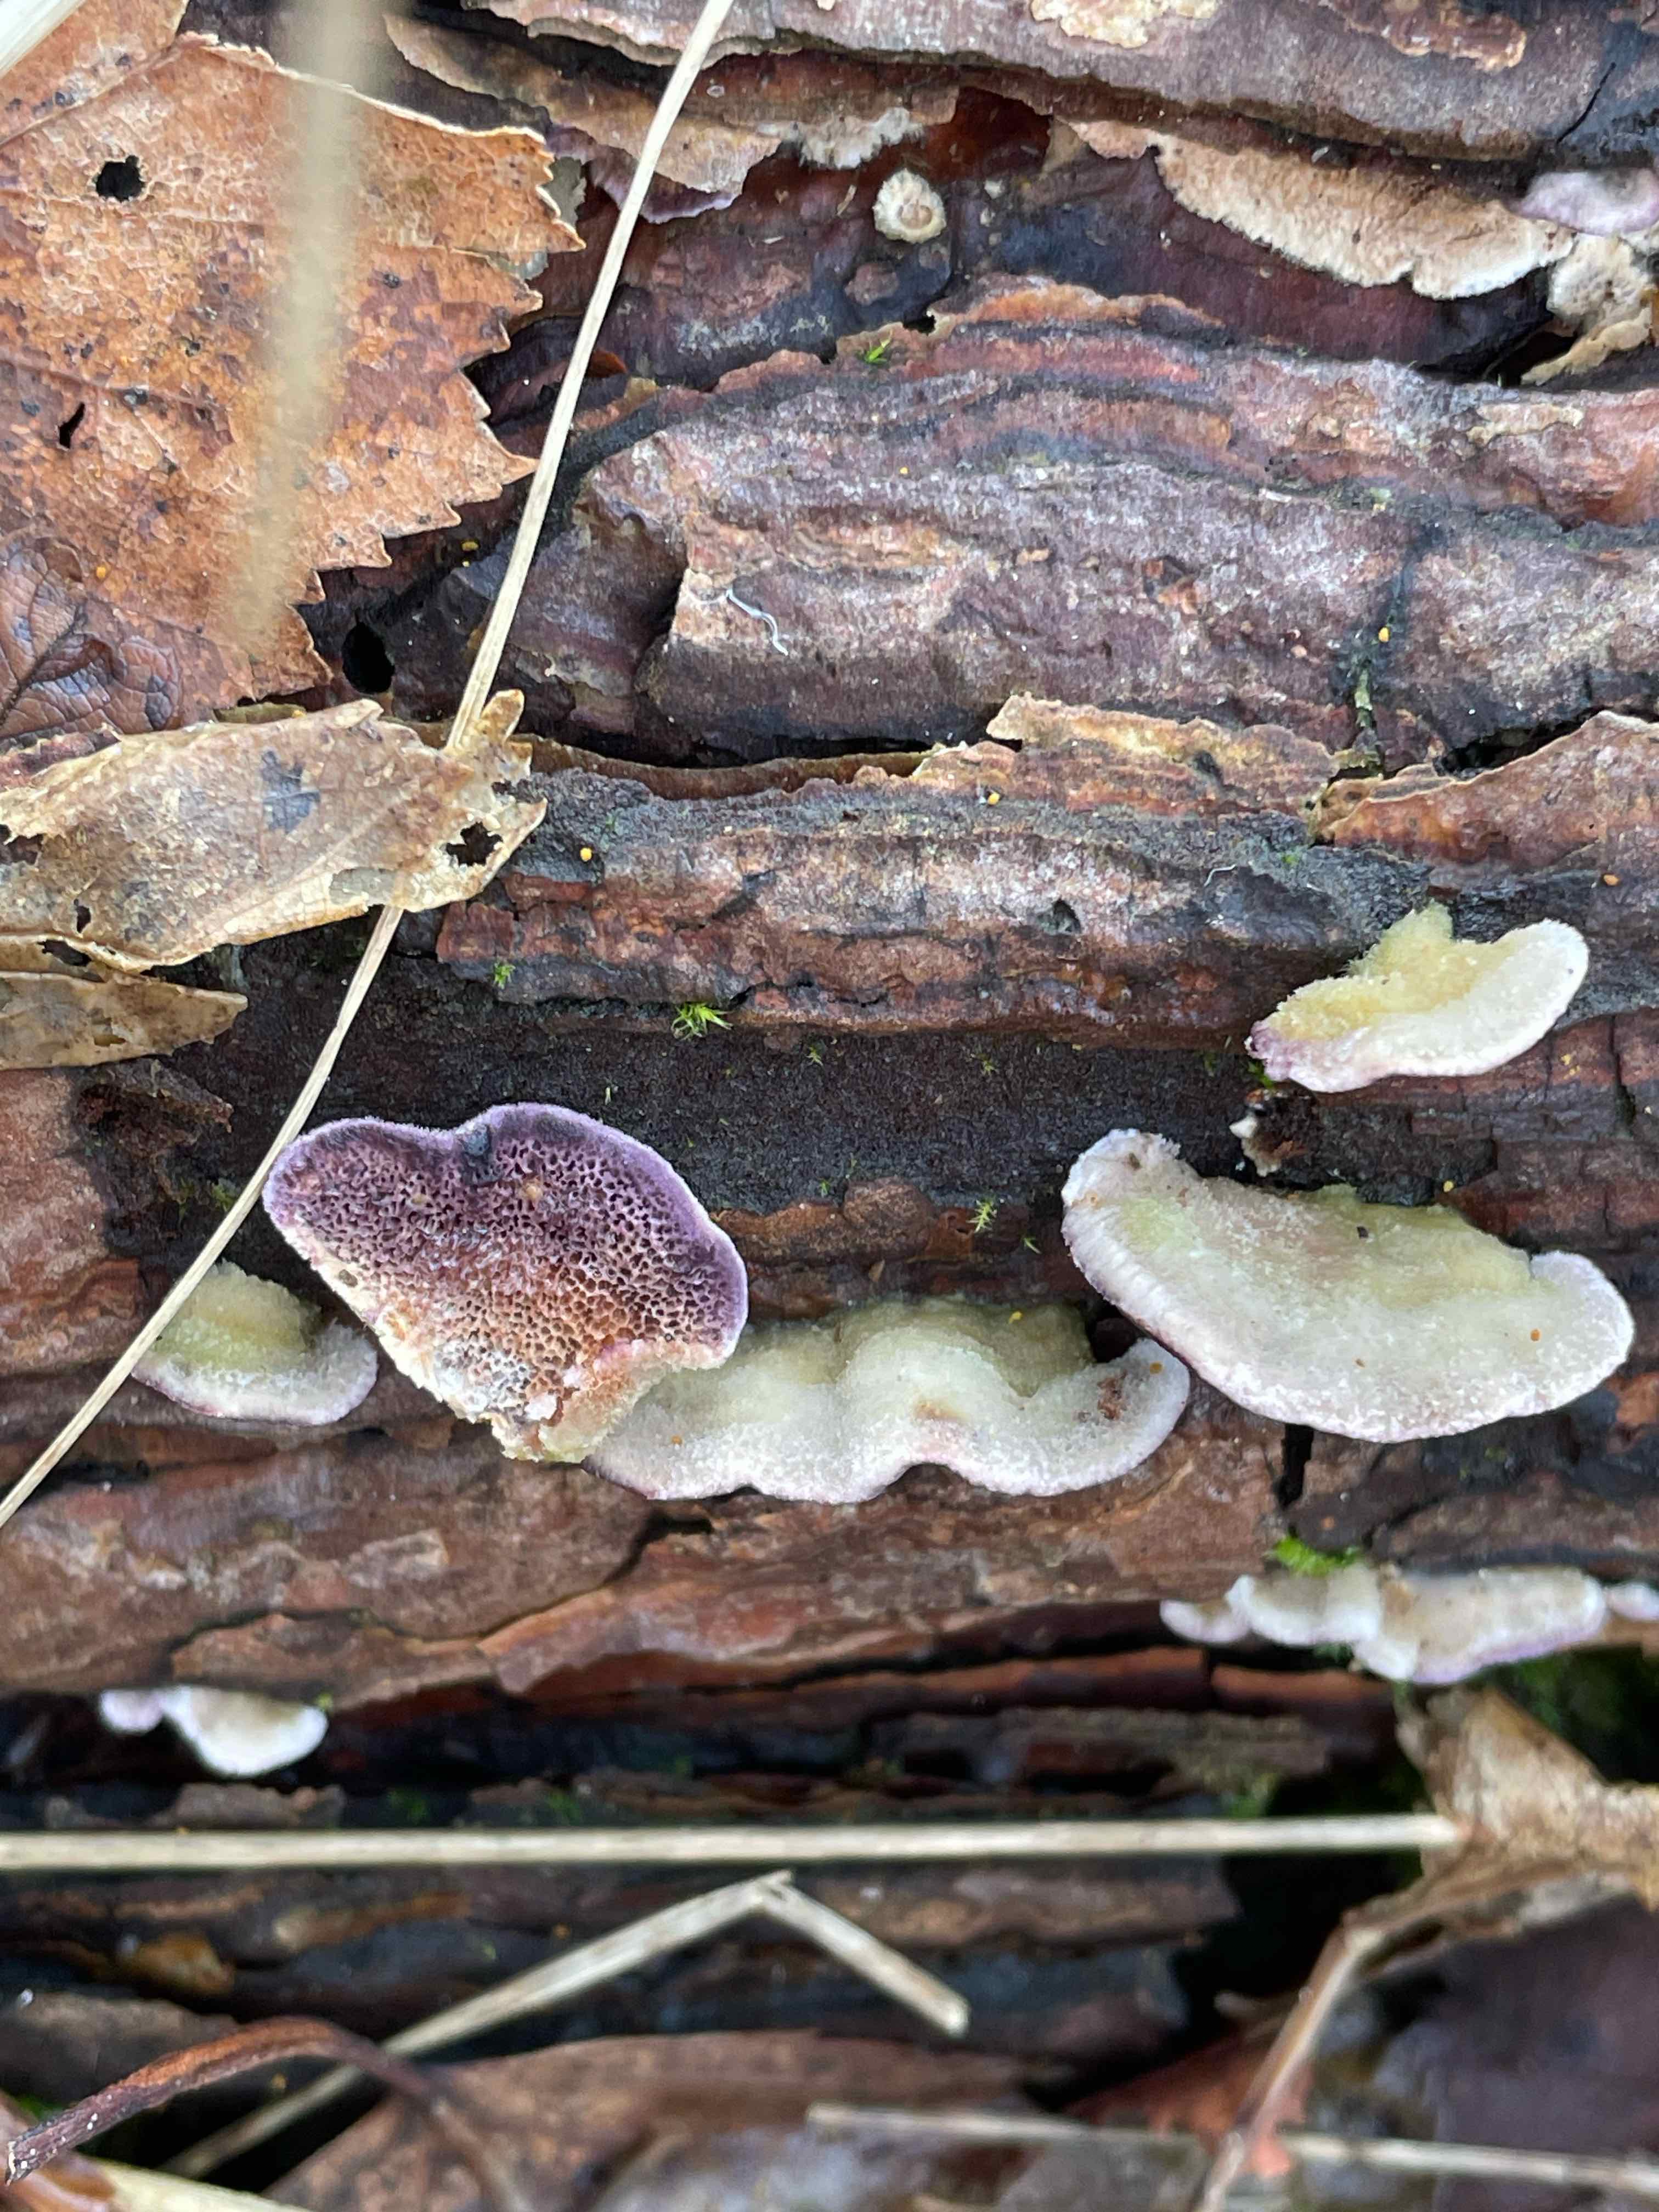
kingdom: Fungi
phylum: Basidiomycota
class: Agaricomycetes
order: Hymenochaetales
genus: Trichaptum
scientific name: Trichaptum abietinum
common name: almindelig violporesvamp
